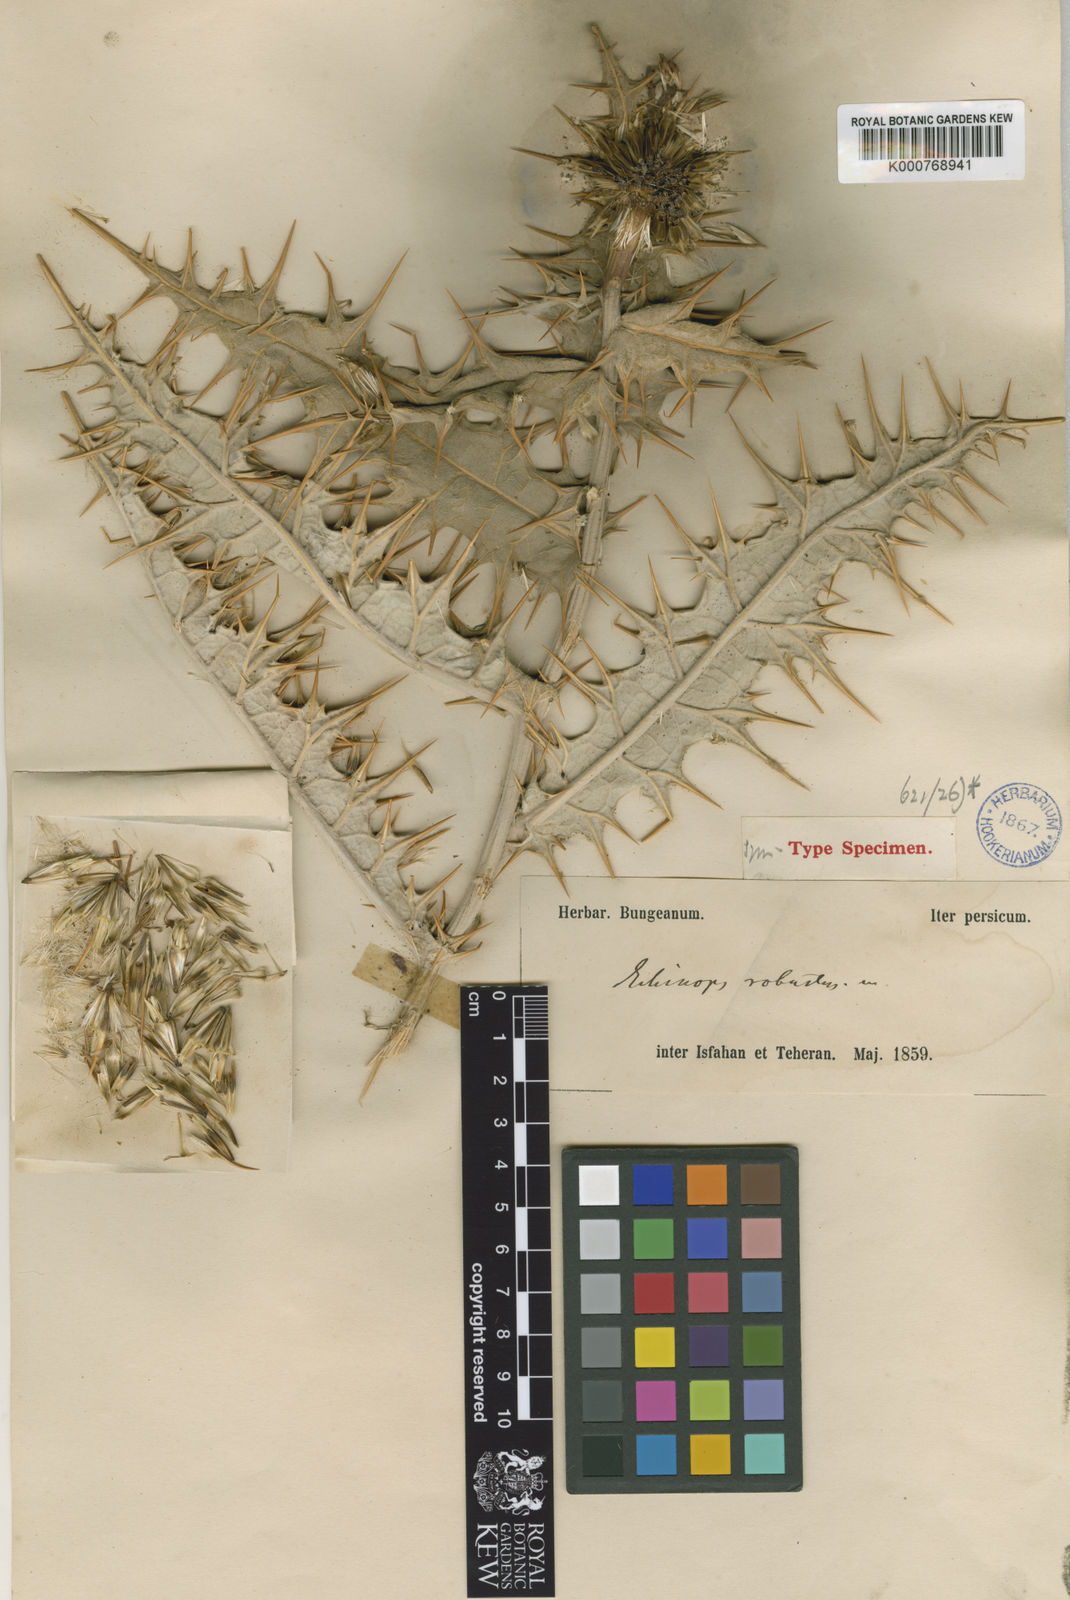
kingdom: Plantae
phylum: Tracheophyta
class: Magnoliopsida
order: Asterales
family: Asteraceae
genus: Echinops
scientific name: Echinops robustus
